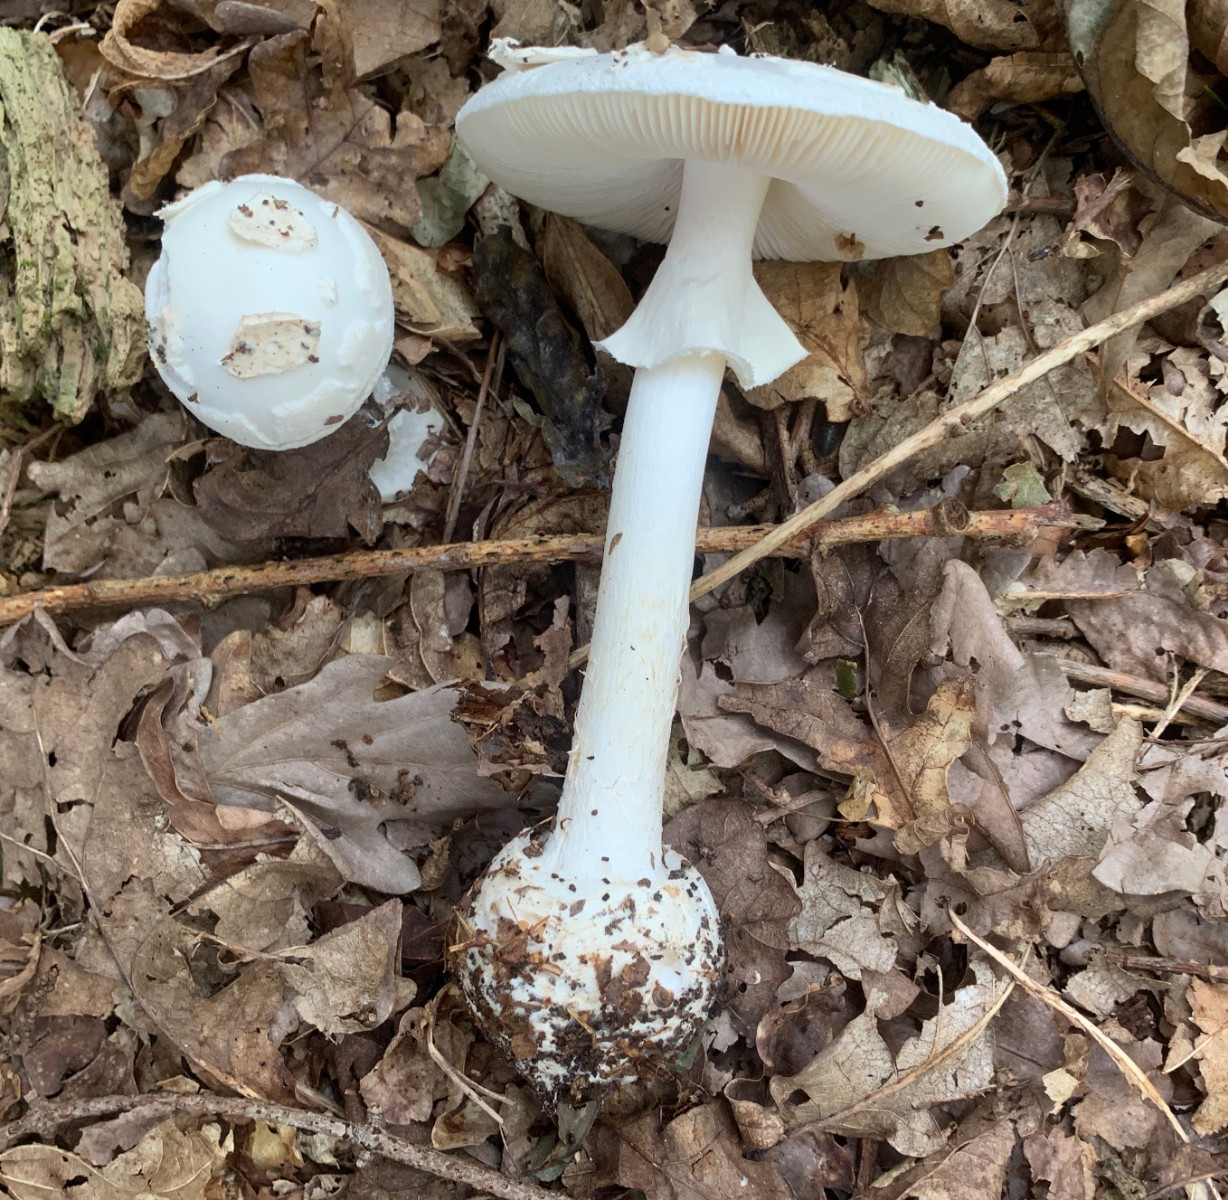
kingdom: Fungi
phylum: Basidiomycota
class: Agaricomycetes
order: Agaricales
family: Amanitaceae
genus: Amanita
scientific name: Amanita citrina
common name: kugleknoldet fluesvamp
